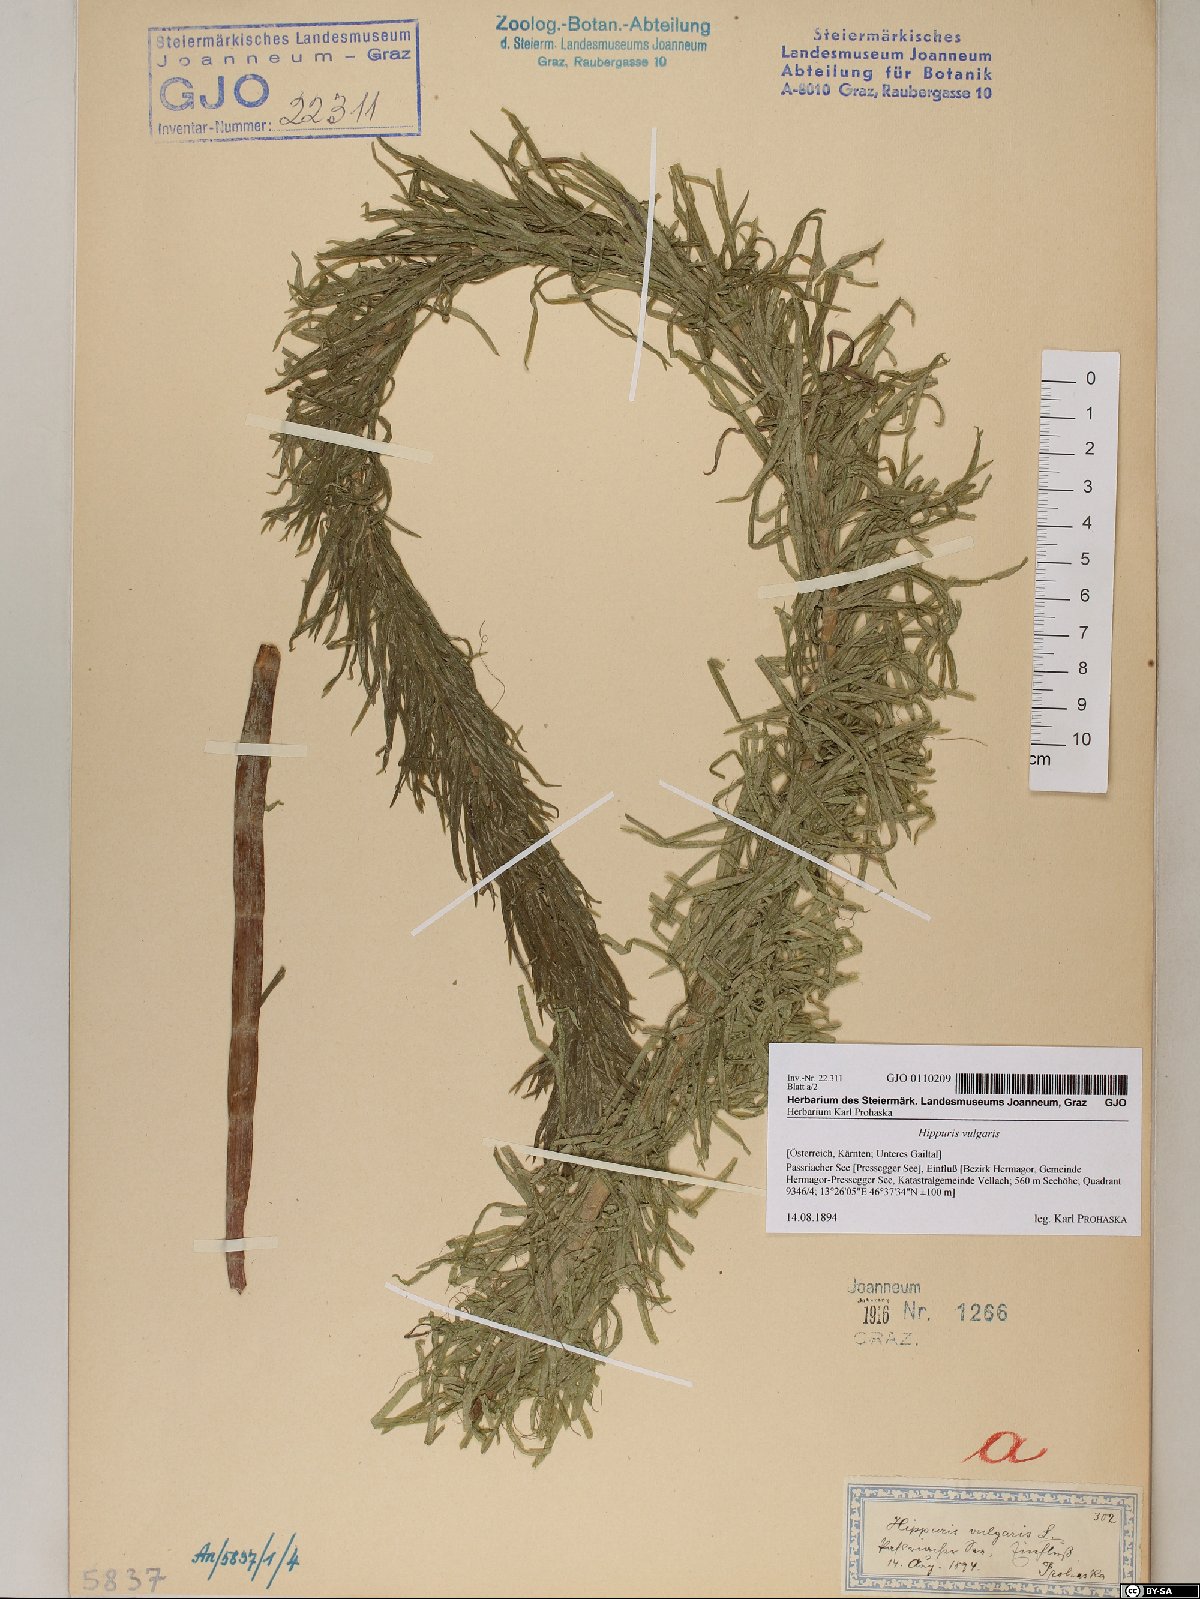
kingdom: Plantae
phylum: Tracheophyta
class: Magnoliopsida
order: Lamiales
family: Plantaginaceae
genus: Hippuris
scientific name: Hippuris vulgaris
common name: Mare's-tail
